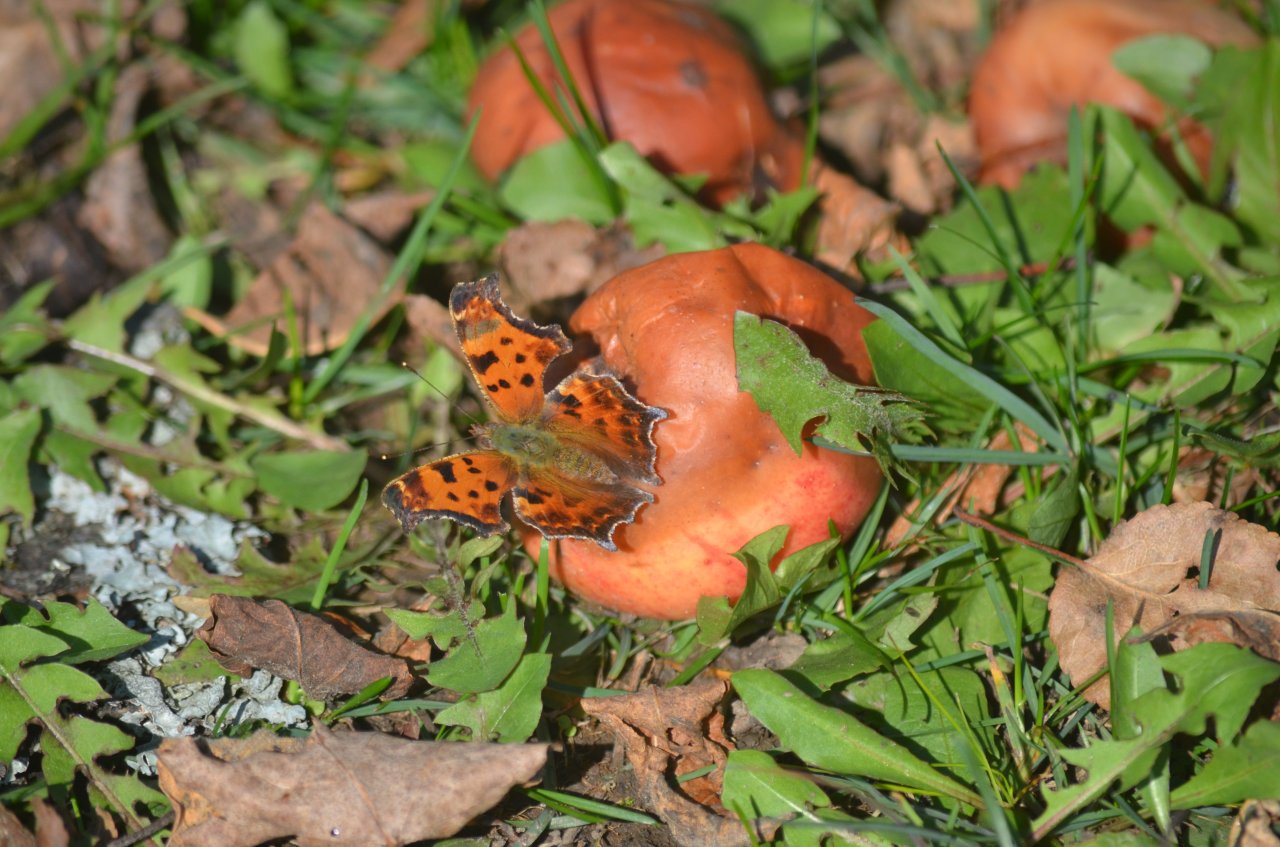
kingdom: Animalia
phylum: Arthropoda
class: Insecta
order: Lepidoptera
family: Nymphalidae
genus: Polygonia
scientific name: Polygonia comma
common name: Eastern Comma
